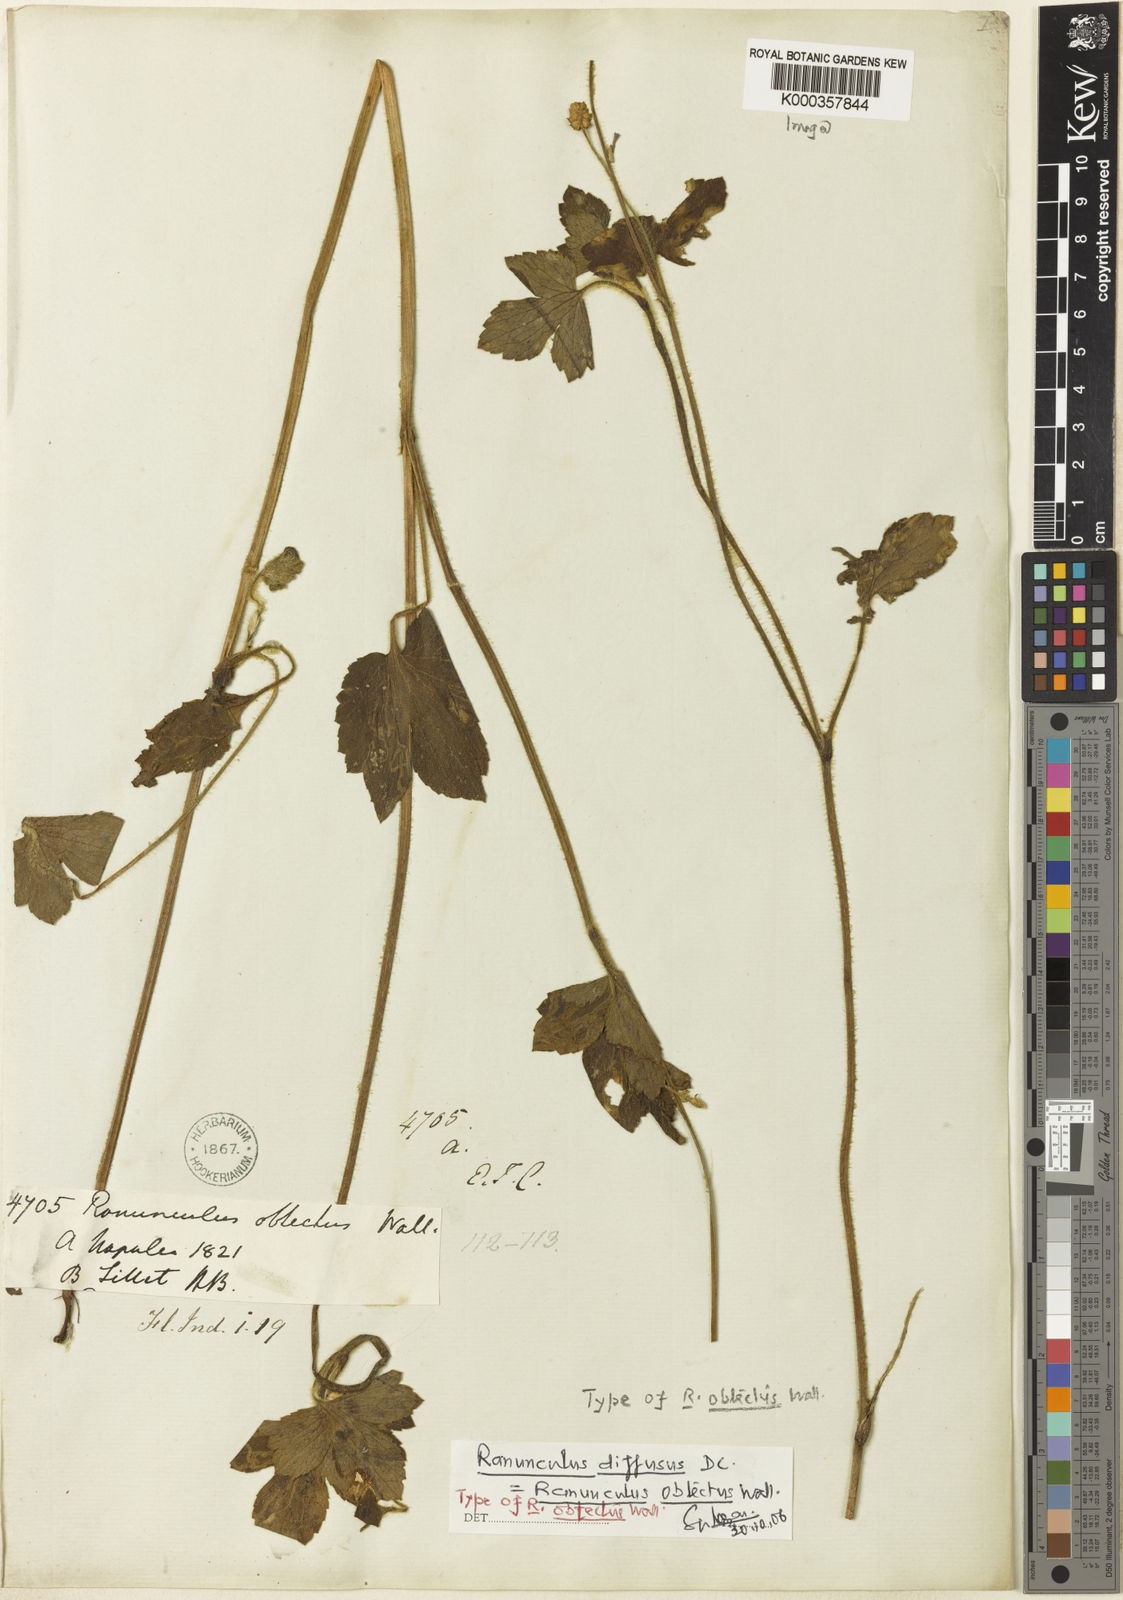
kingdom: Plantae
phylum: Tracheophyta
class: Magnoliopsida
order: Ranunculales
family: Ranunculaceae
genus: Ranunculus
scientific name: Ranunculus diffusus
